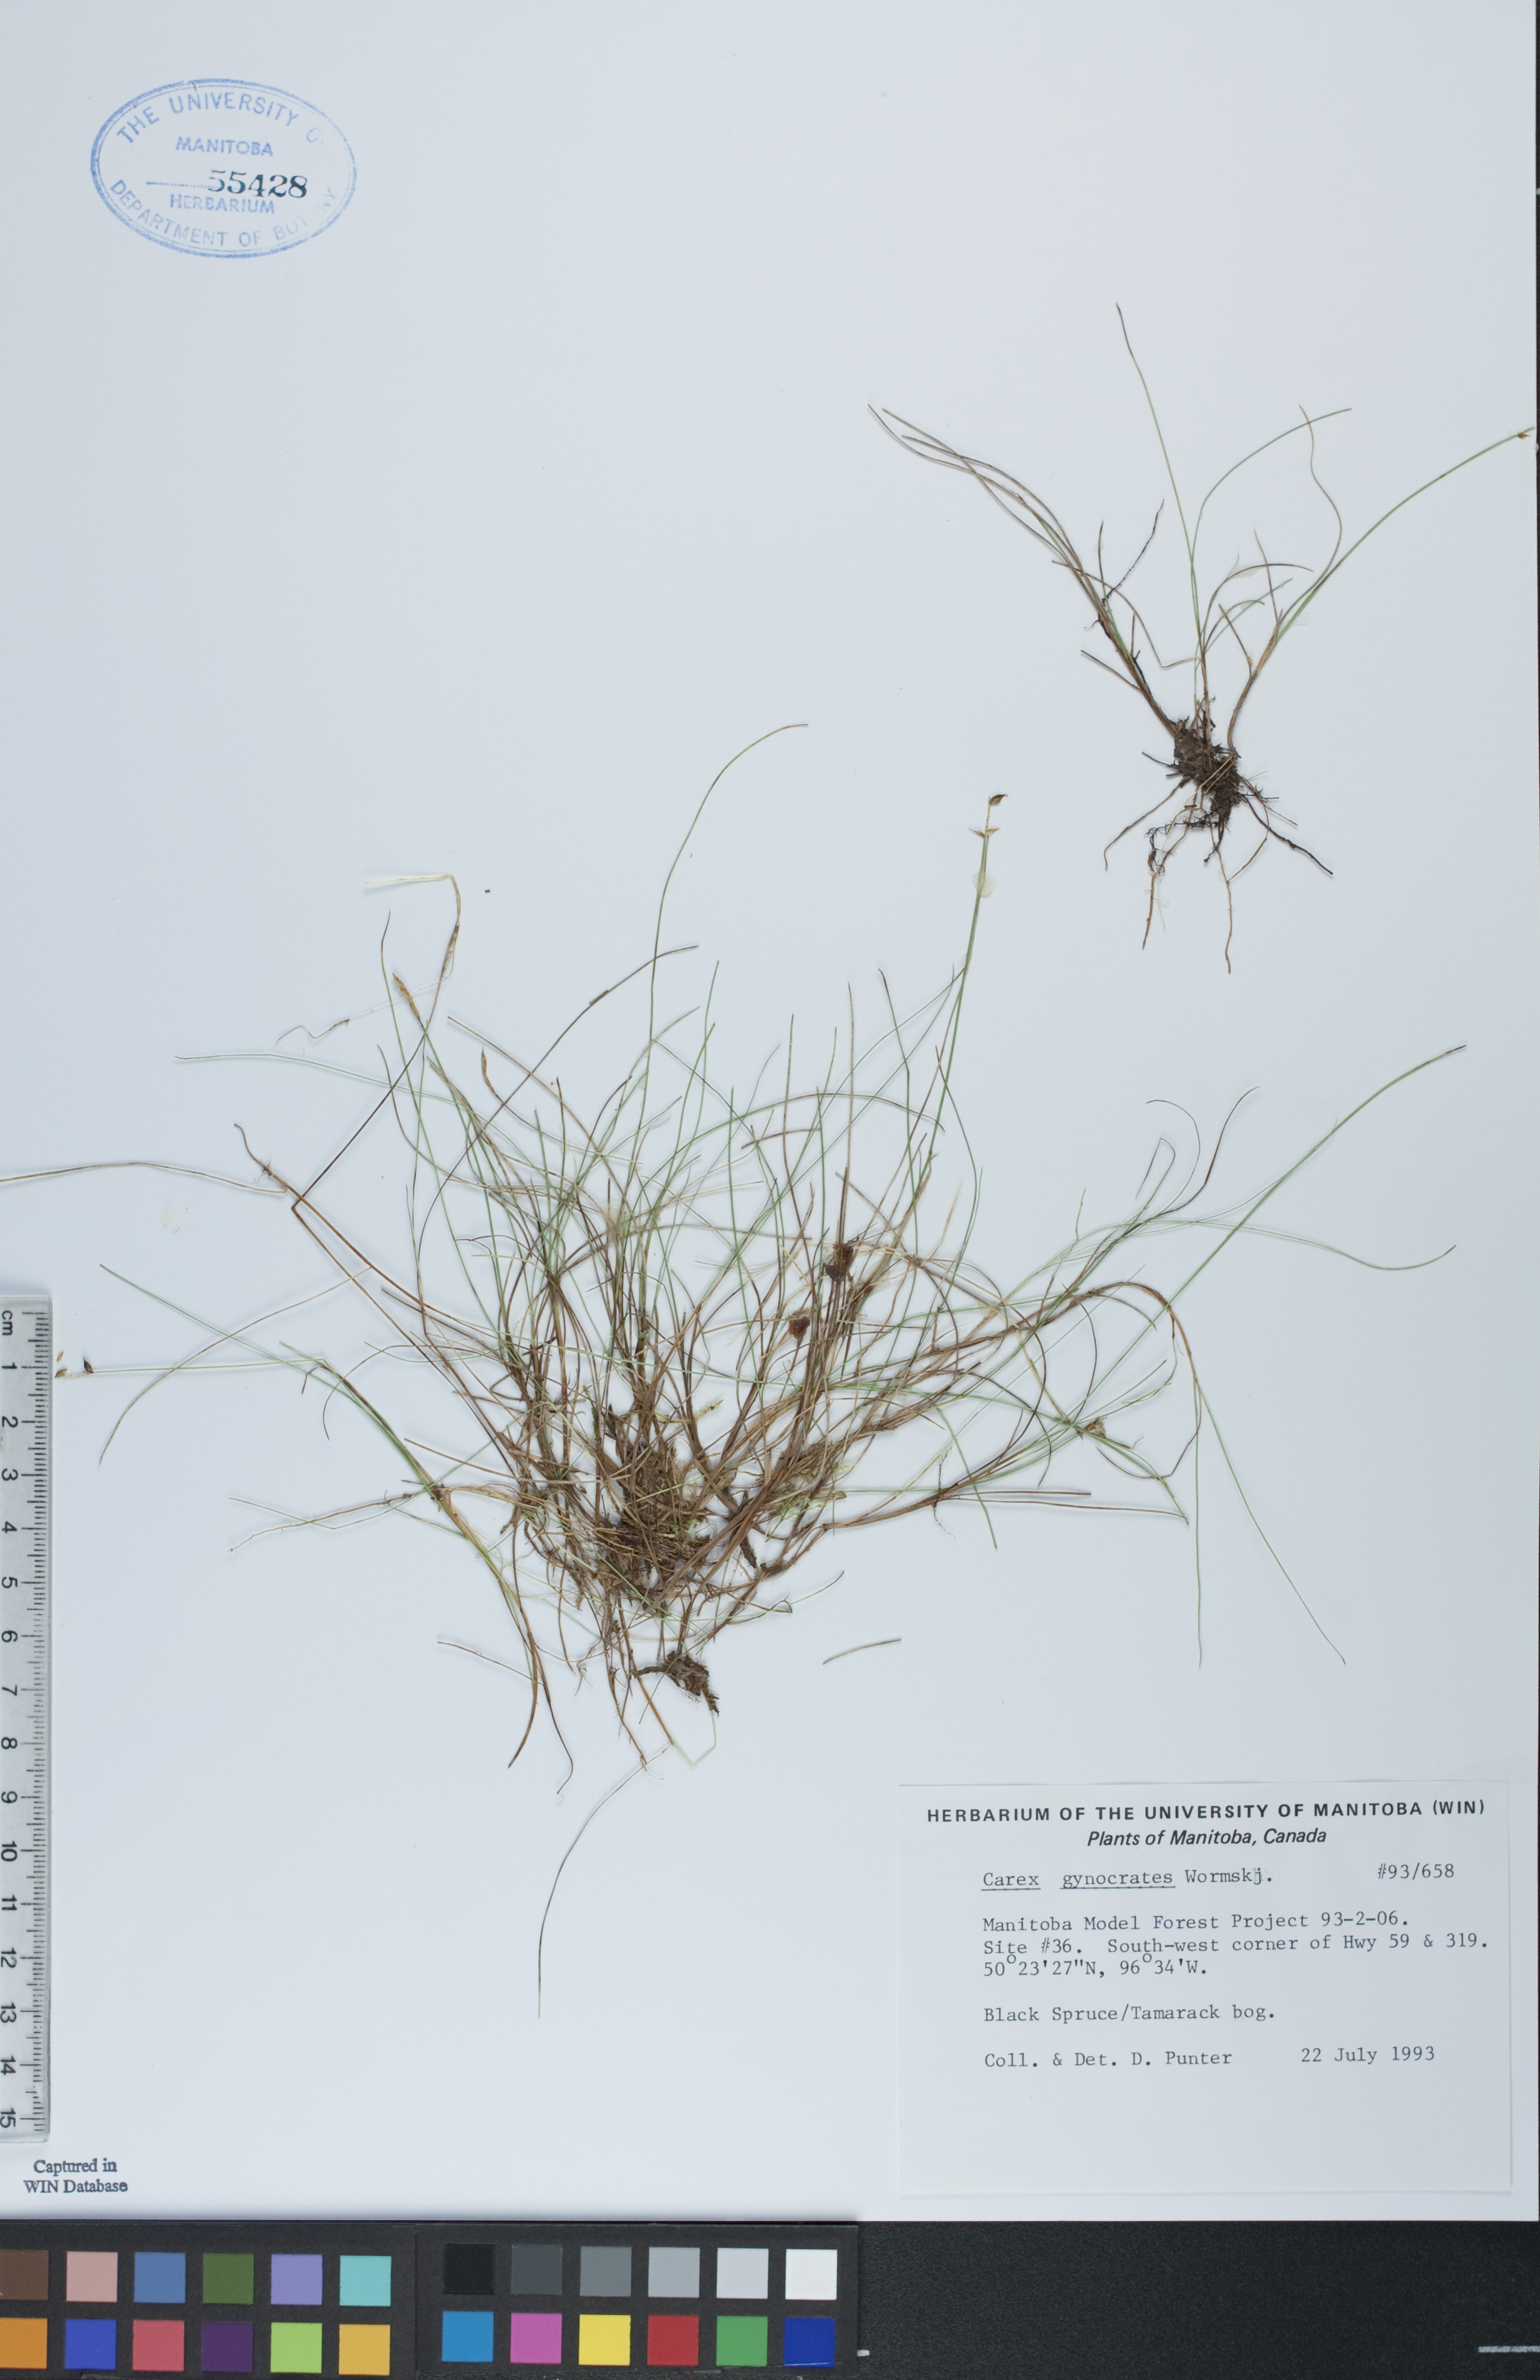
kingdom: Plantae
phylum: Tracheophyta
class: Liliopsida
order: Poales
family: Cyperaceae
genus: Carex
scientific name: Carex nardina
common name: Nard sedge
